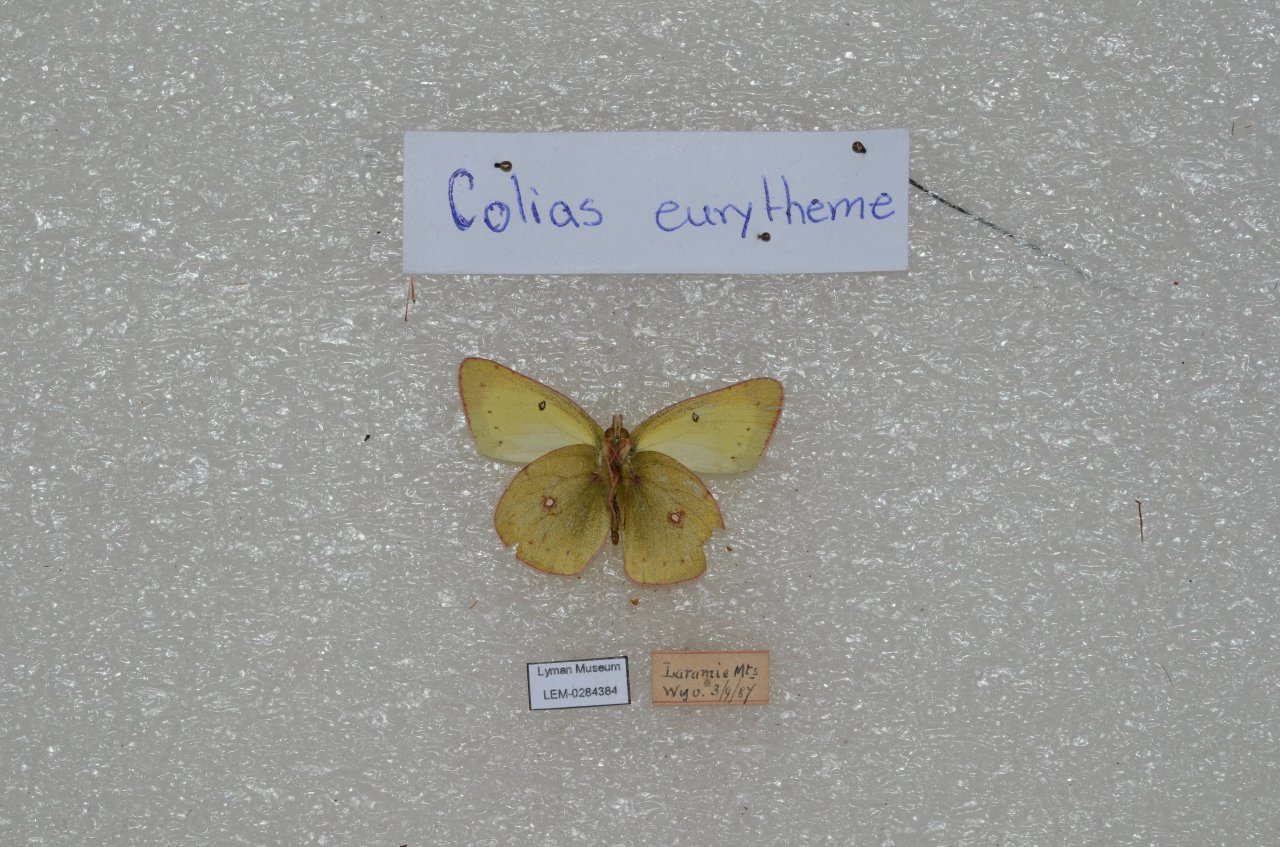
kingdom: Animalia
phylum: Arthropoda
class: Insecta
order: Lepidoptera
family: Pieridae
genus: Colias
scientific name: Colias eurytheme
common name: Orange Sulphur
